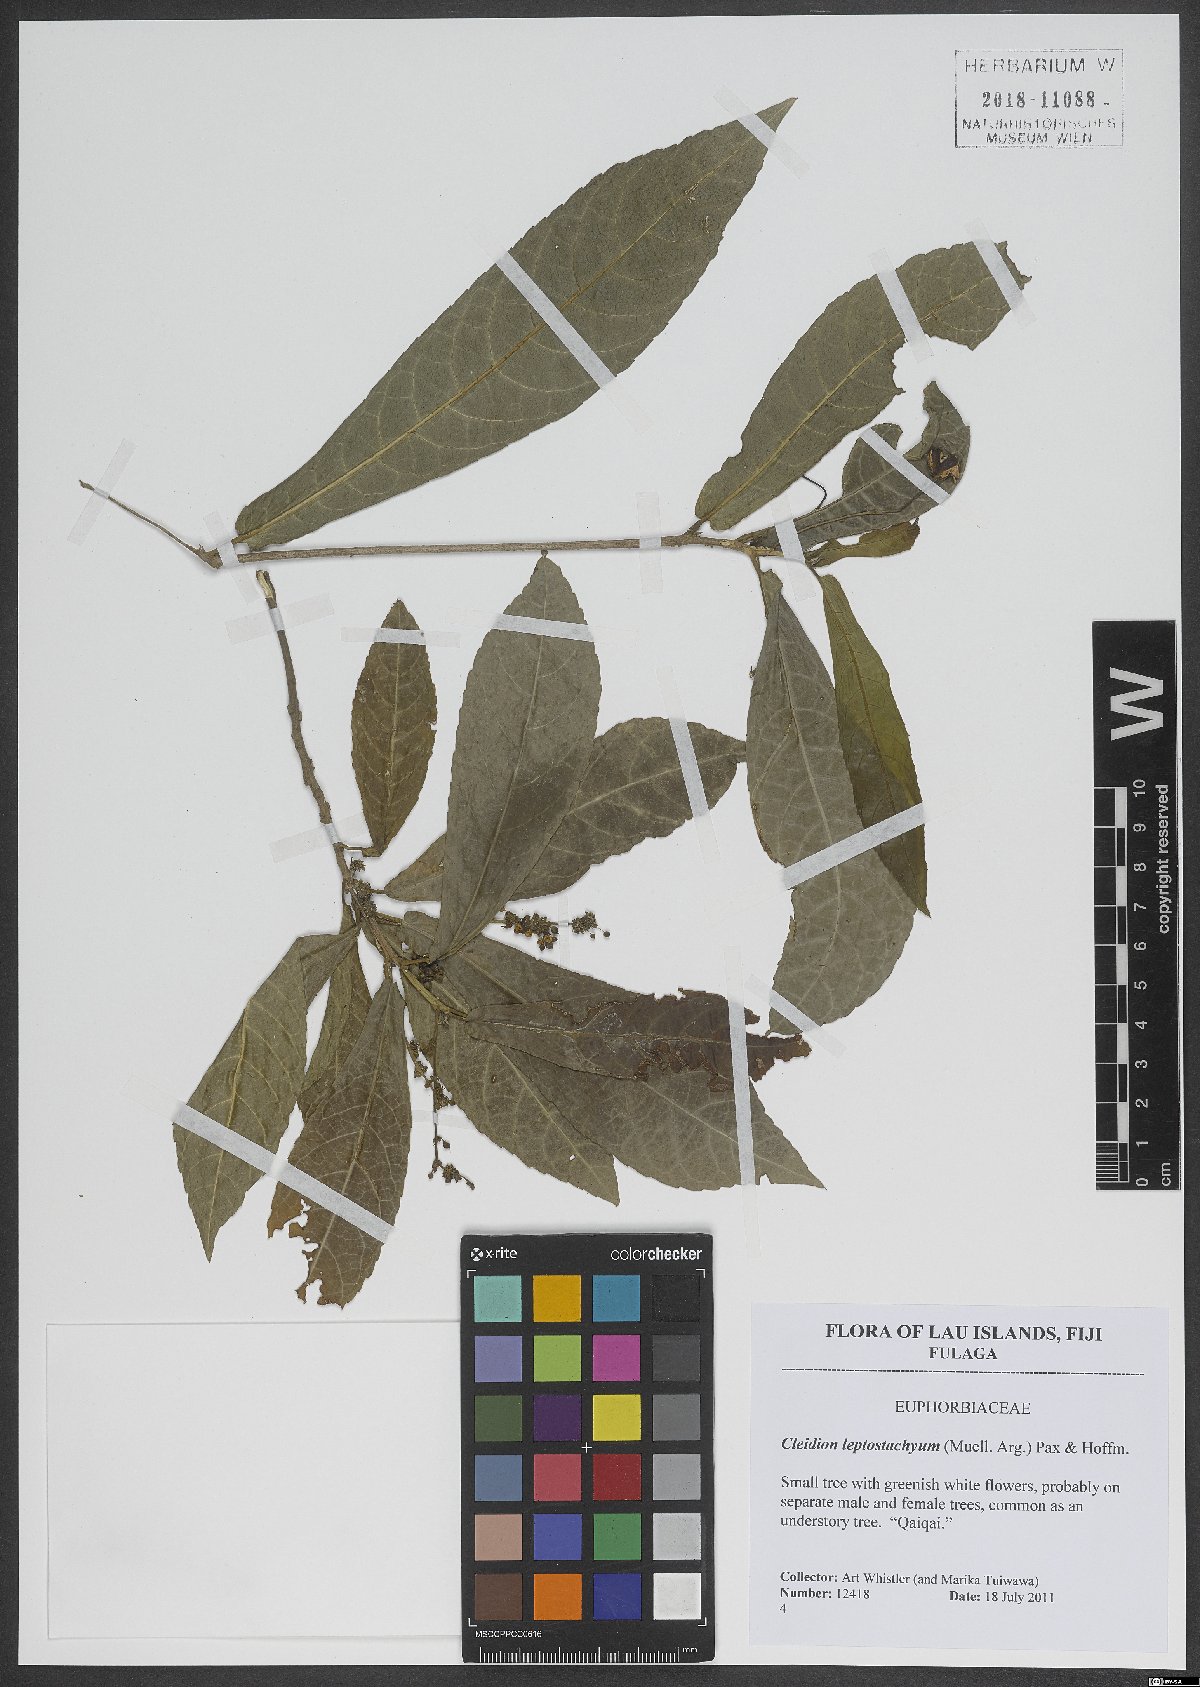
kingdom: Plantae
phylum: Tracheophyta
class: Magnoliopsida
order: Malpighiales
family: Euphorbiaceae
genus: Cleidion
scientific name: Cleidion leptostachyum
